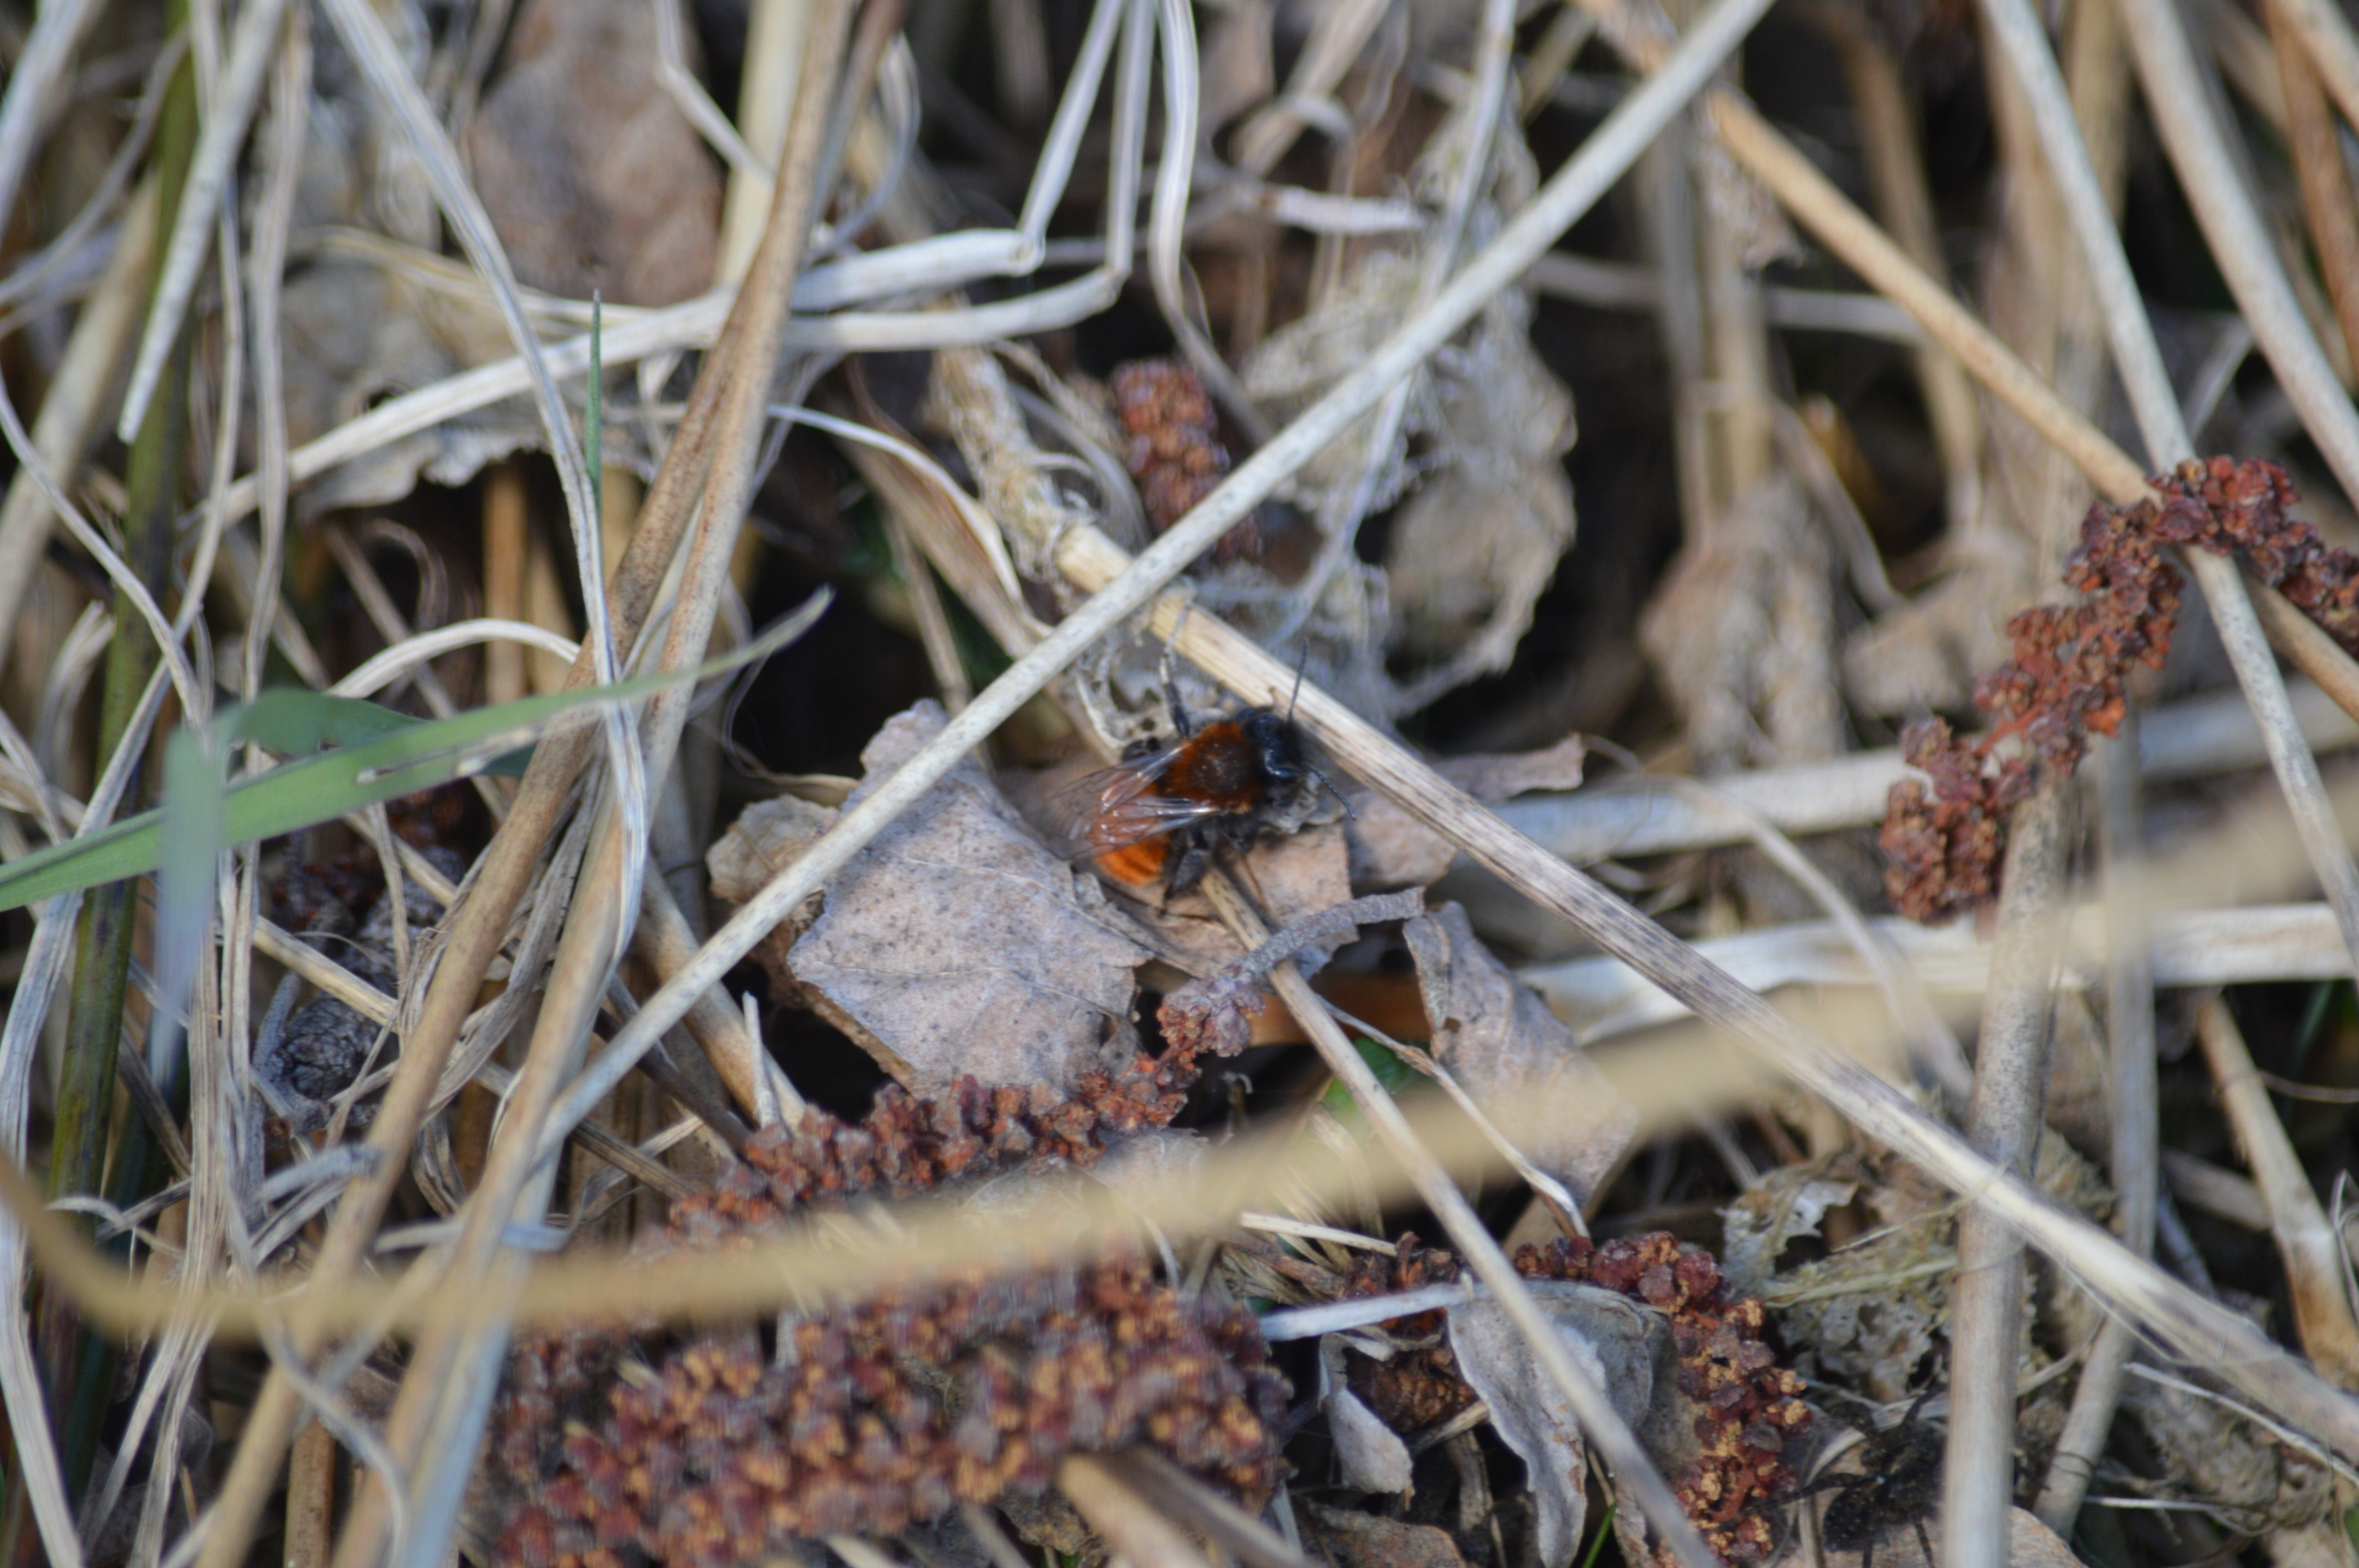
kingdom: Animalia
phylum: Arthropoda
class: Insecta
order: Hymenoptera
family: Andrenidae
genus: Andrena
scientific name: Andrena fulva
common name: Rødpelset jordbi
